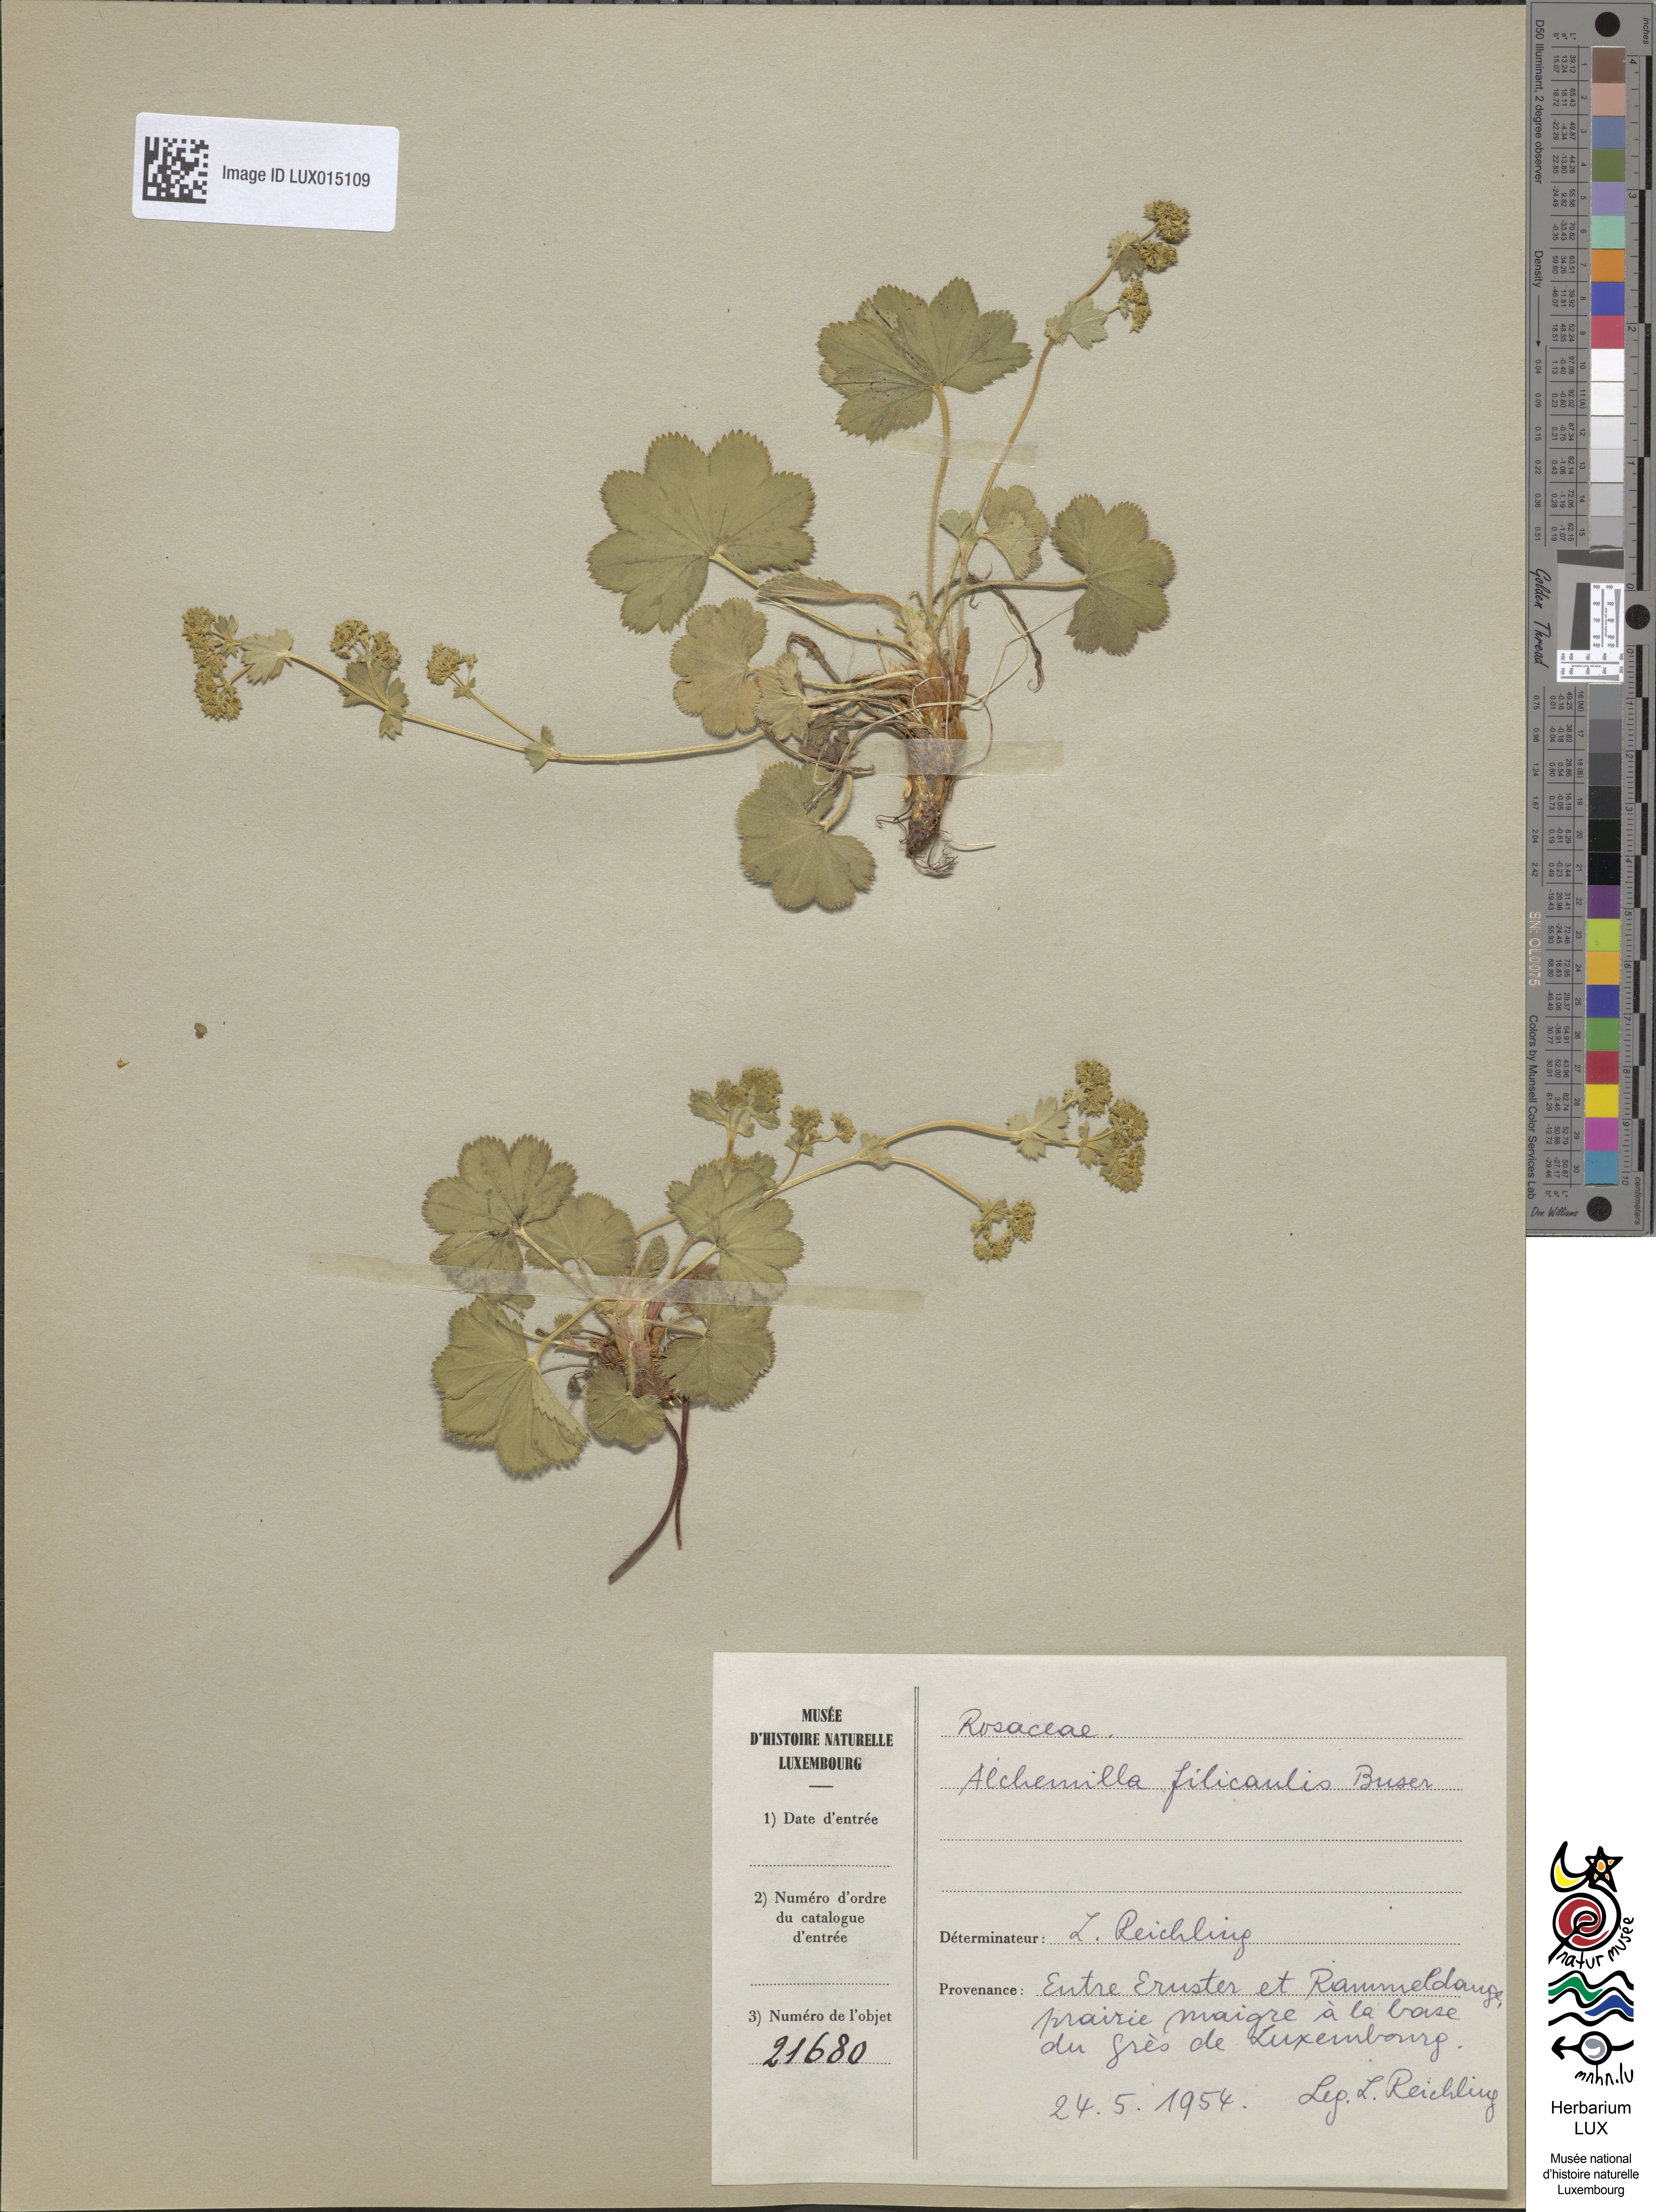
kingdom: Plantae
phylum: Tracheophyta
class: Magnoliopsida
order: Rosales
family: Rosaceae
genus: Alchemilla
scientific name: Alchemilla filicaulis
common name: Hairy lady's-mantle
